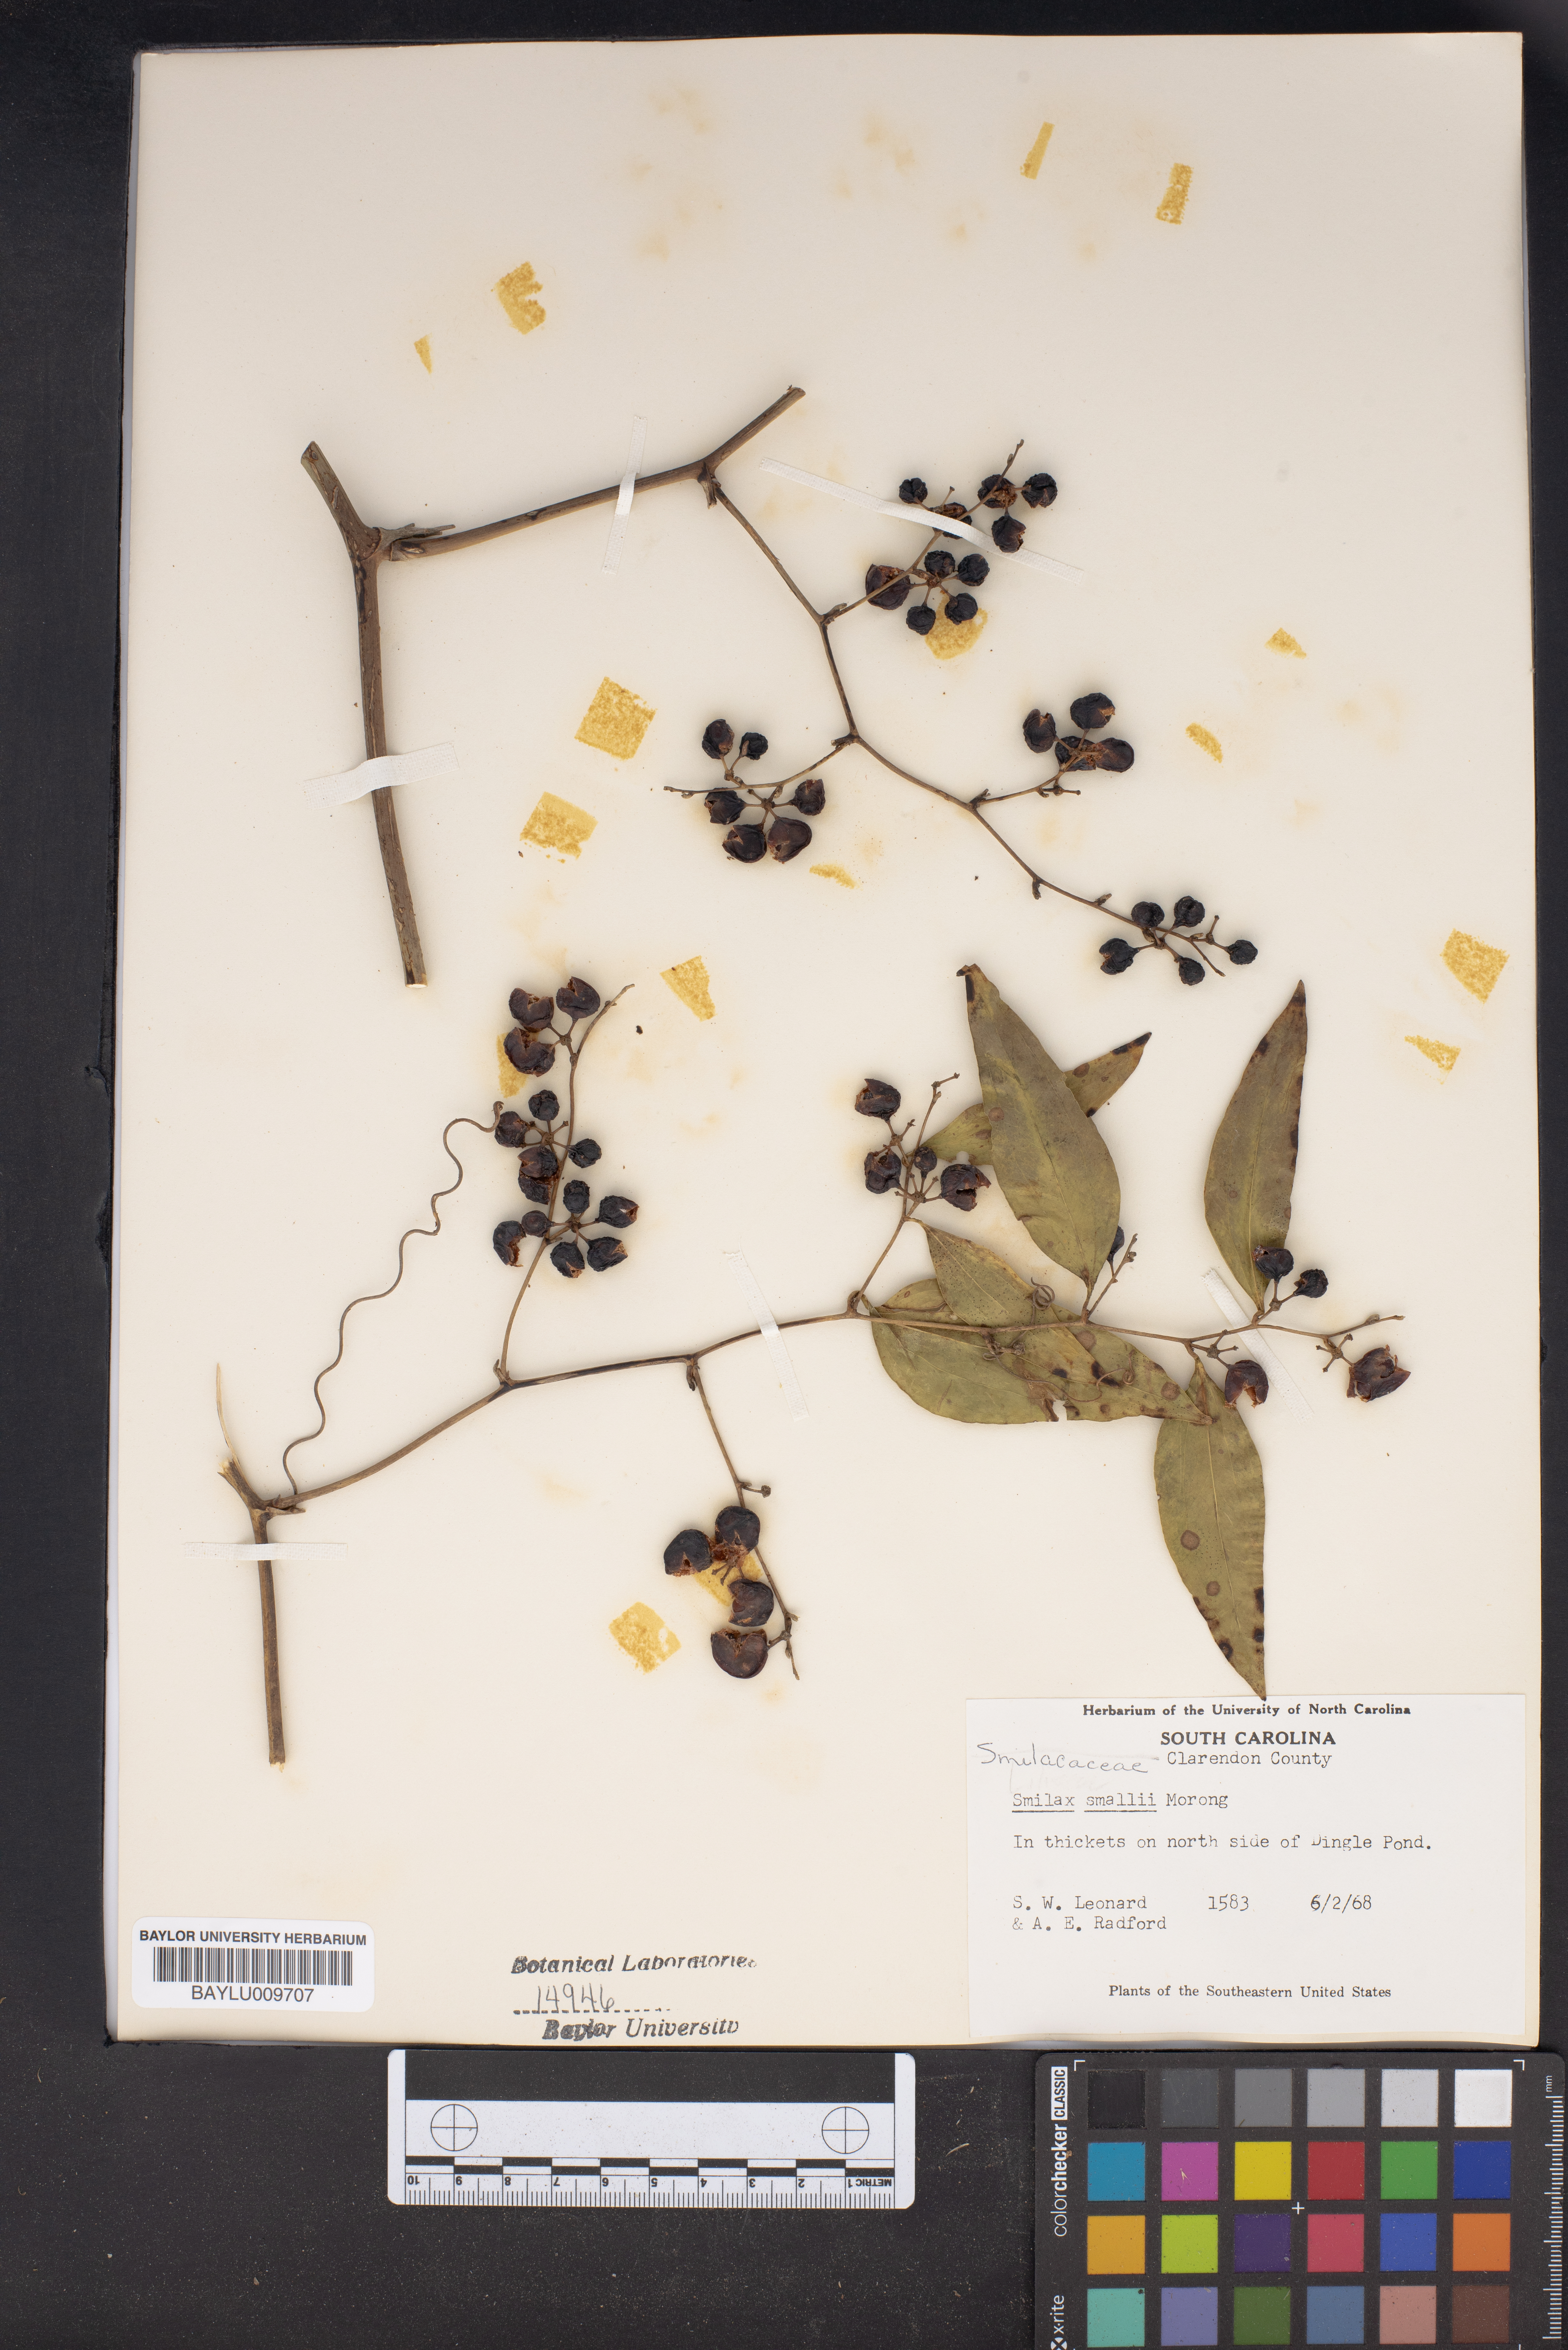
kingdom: Plantae
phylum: Tracheophyta
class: Liliopsida
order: Liliales
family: Smilacaceae
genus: Smilax
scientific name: Smilax maritima
